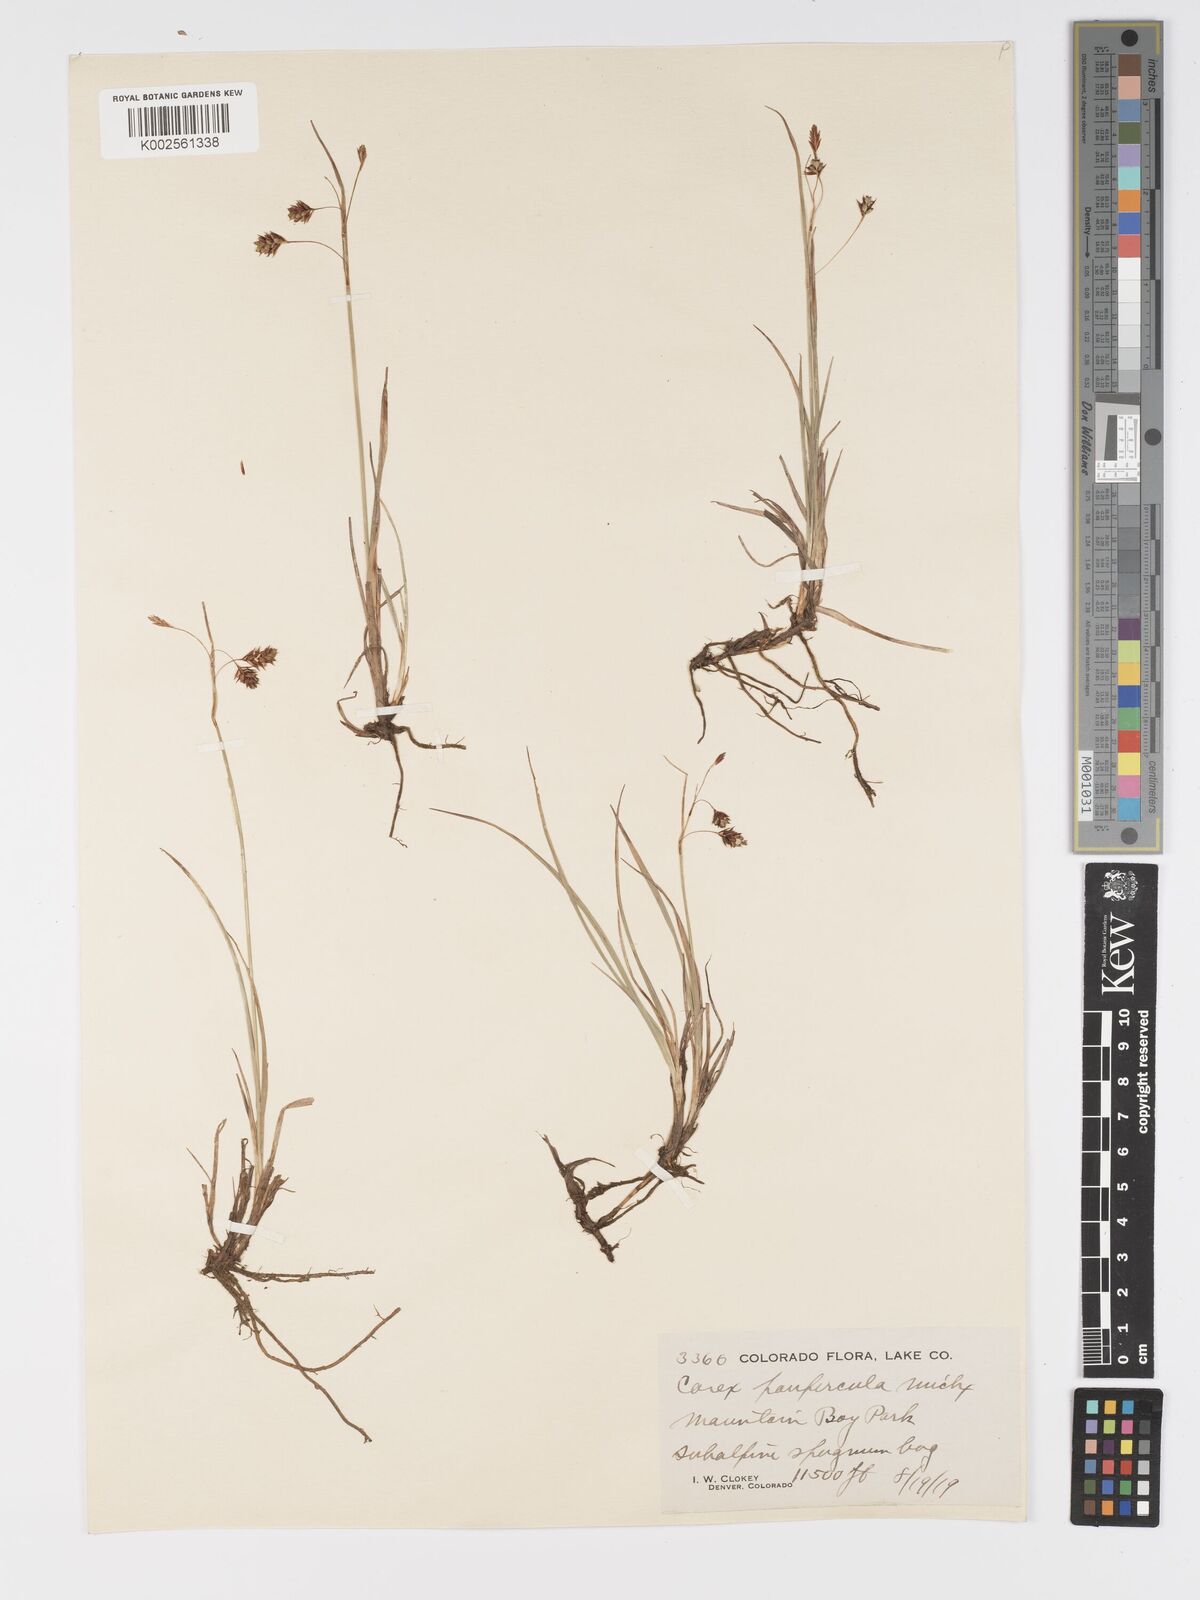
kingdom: Plantae
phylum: Tracheophyta
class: Liliopsida
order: Poales
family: Cyperaceae
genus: Carex
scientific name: Carex magellanica
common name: Bog sedge
